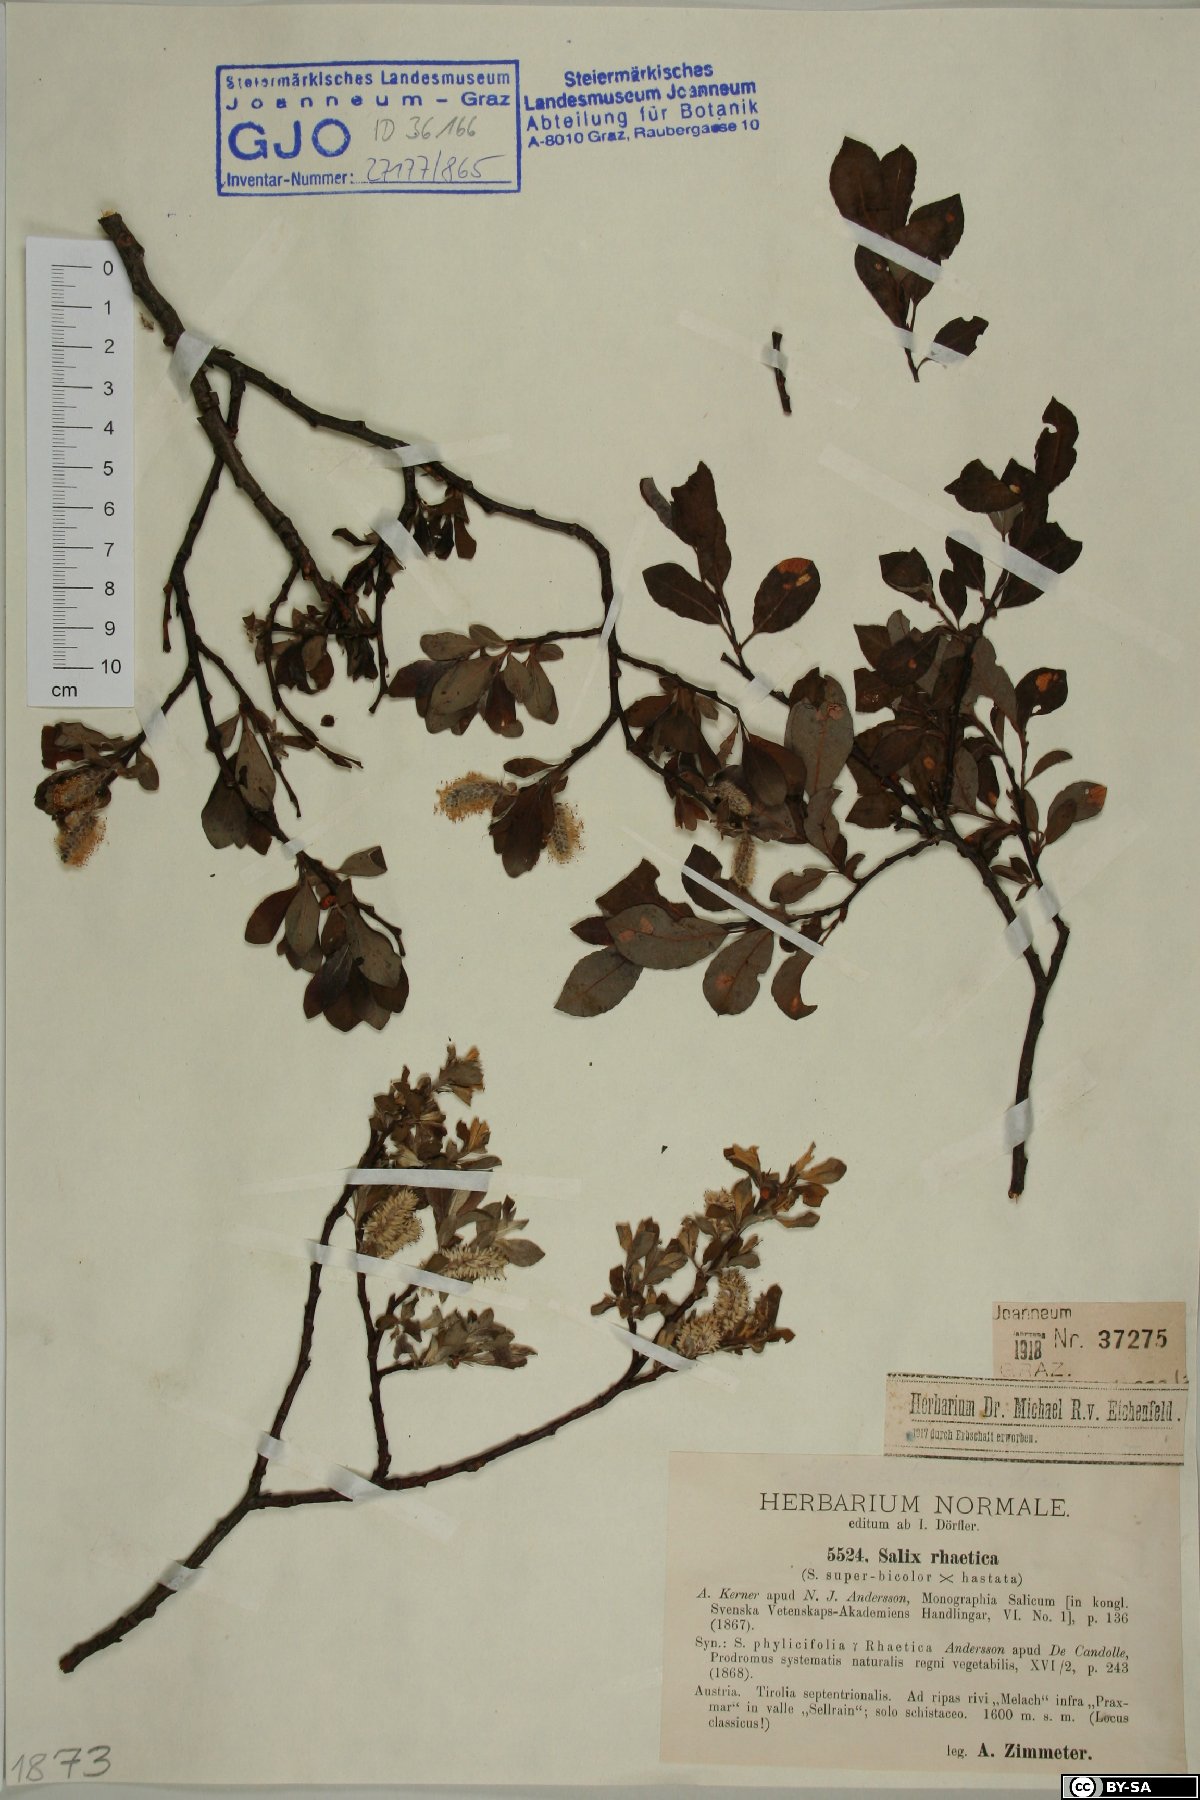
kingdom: Plantae
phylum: Tracheophyta
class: Magnoliopsida
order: Malpighiales
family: Salicaceae
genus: Salix
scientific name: Salix hegetschweileri
